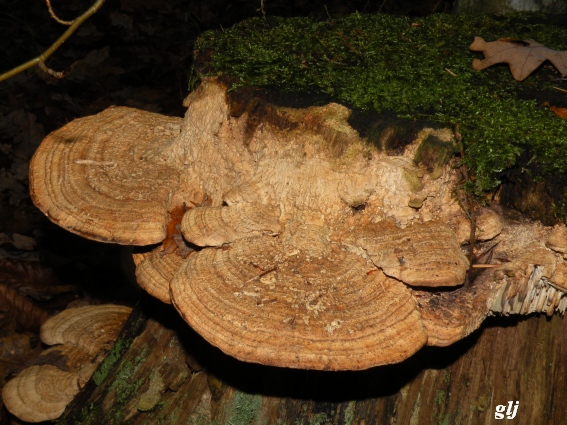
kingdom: Fungi
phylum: Basidiomycota
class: Agaricomycetes
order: Polyporales
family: Fomitopsidaceae
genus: Daedalea
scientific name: Daedalea quercina
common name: ege-labyrintsvamp
